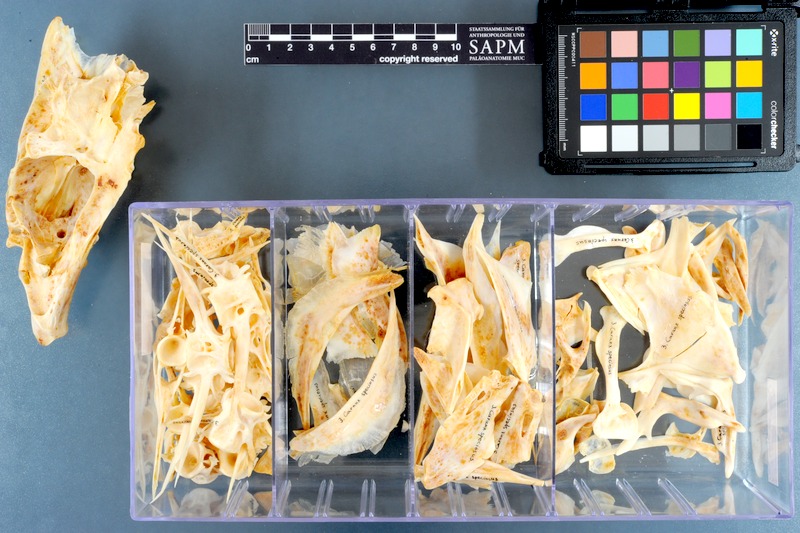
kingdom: Animalia
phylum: Chordata
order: Perciformes
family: Carangidae
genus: Gnathanodon
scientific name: Gnathanodon speciosus
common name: Golden toothless trevally
